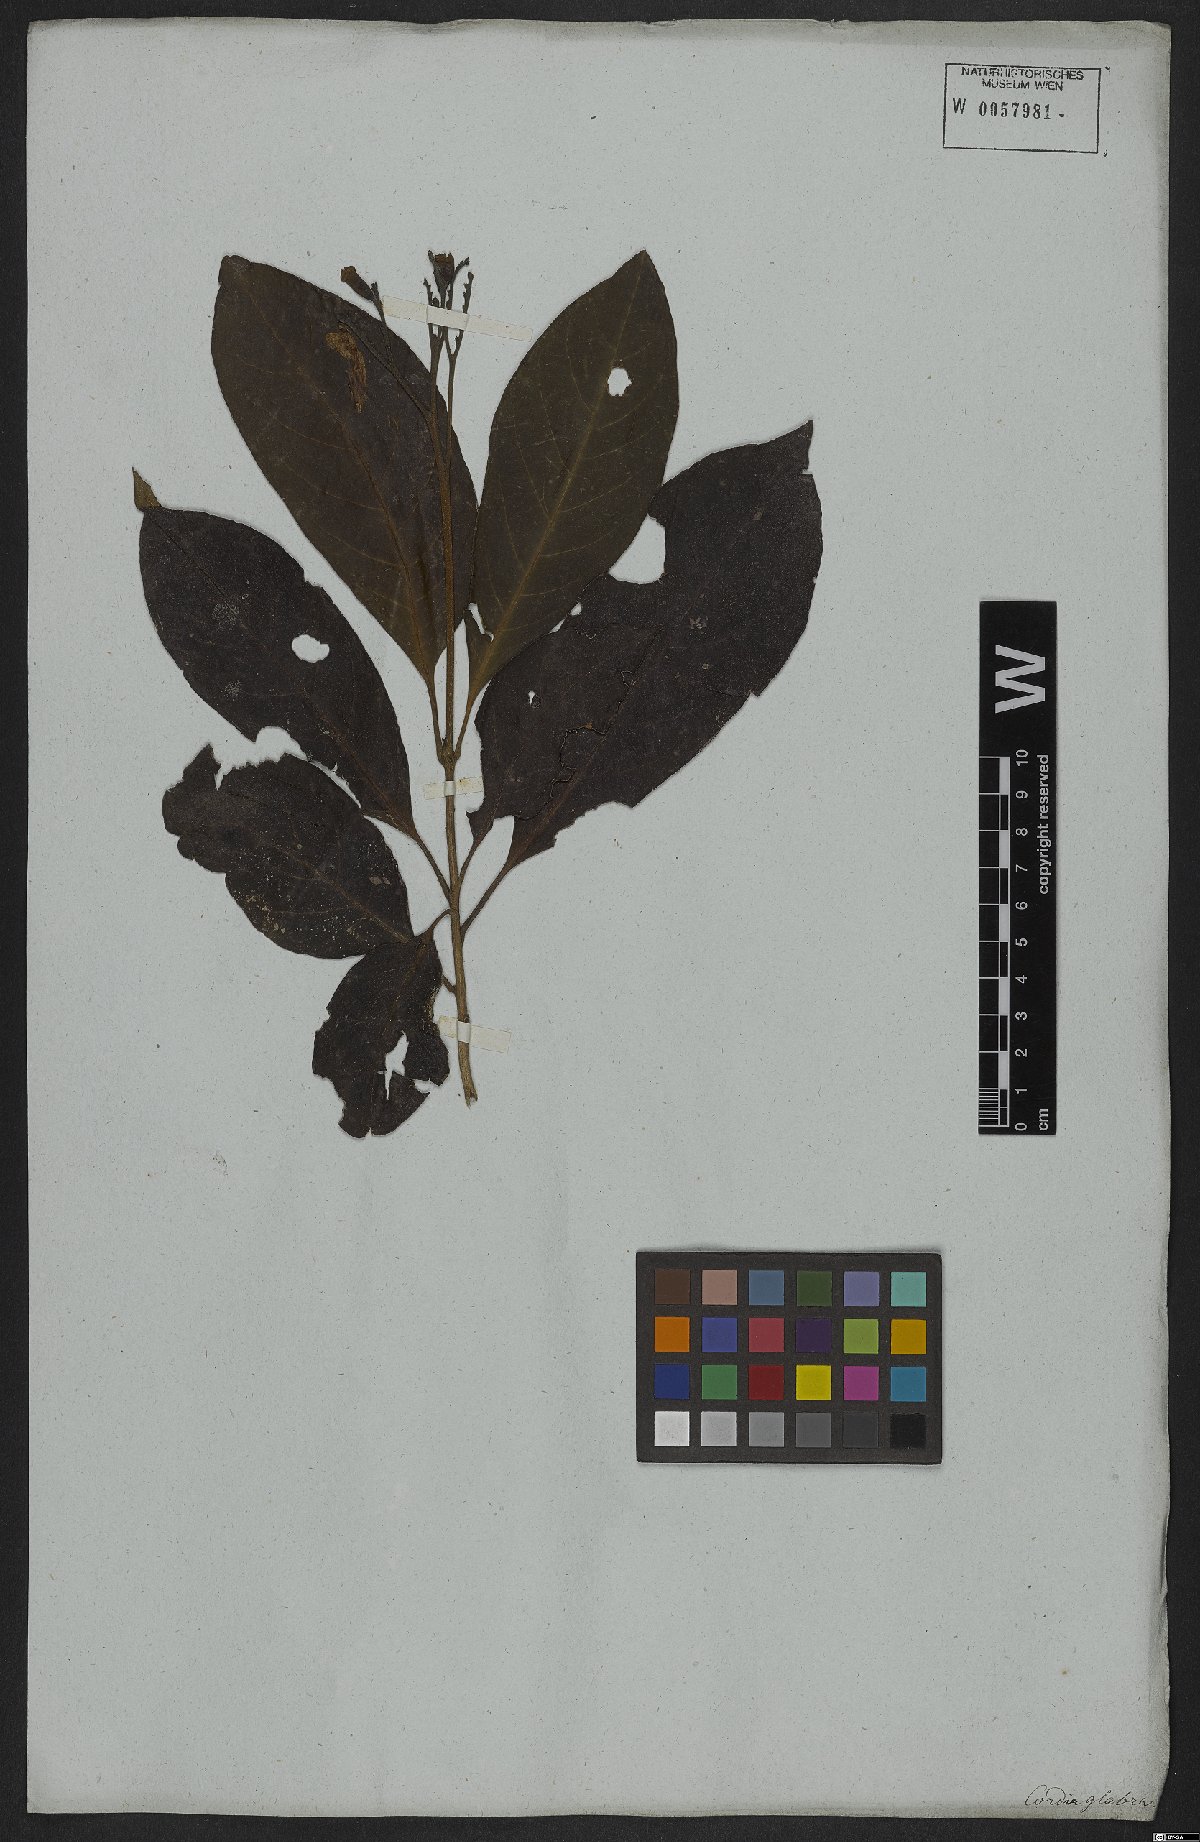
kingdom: Plantae
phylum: Tracheophyta
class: Magnoliopsida
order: Boraginales
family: Cordiaceae
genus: Cordia
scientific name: Cordia glabra
